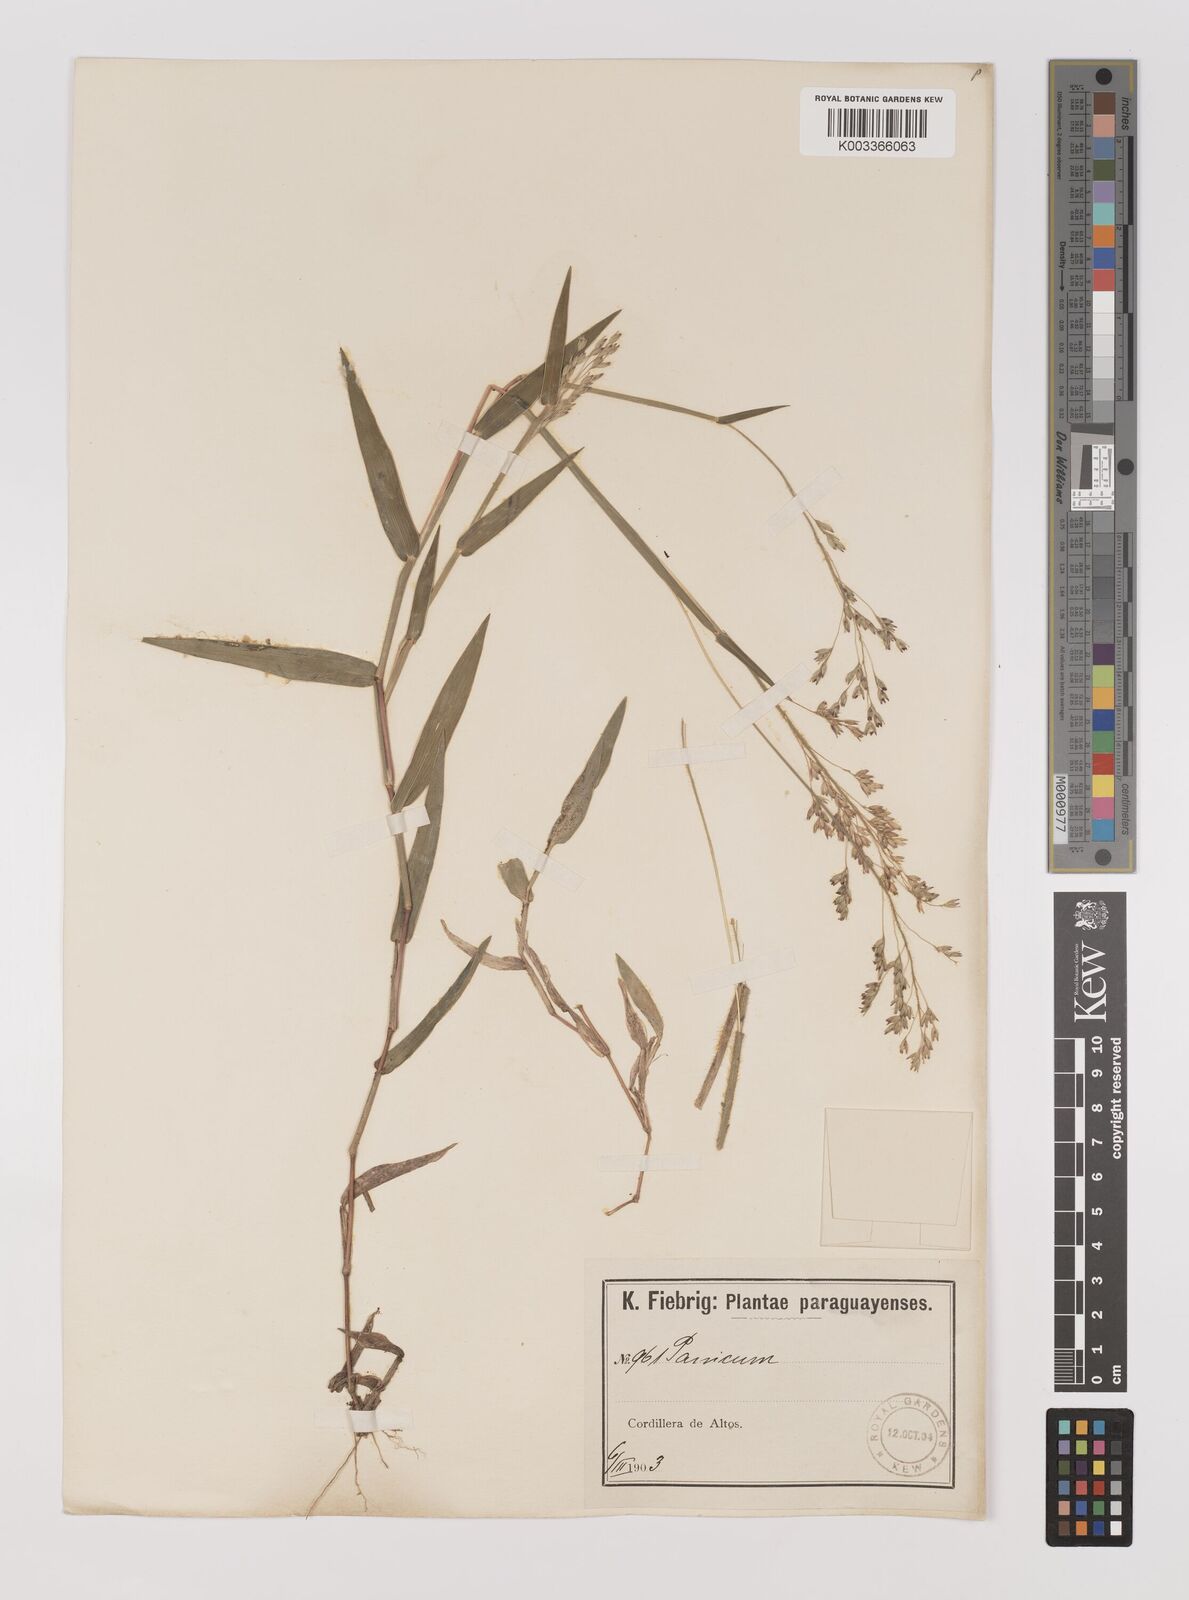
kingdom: Plantae
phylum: Tracheophyta
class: Liliopsida
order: Poales
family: Poaceae
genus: Oedochloa
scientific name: Oedochloa procurrens
